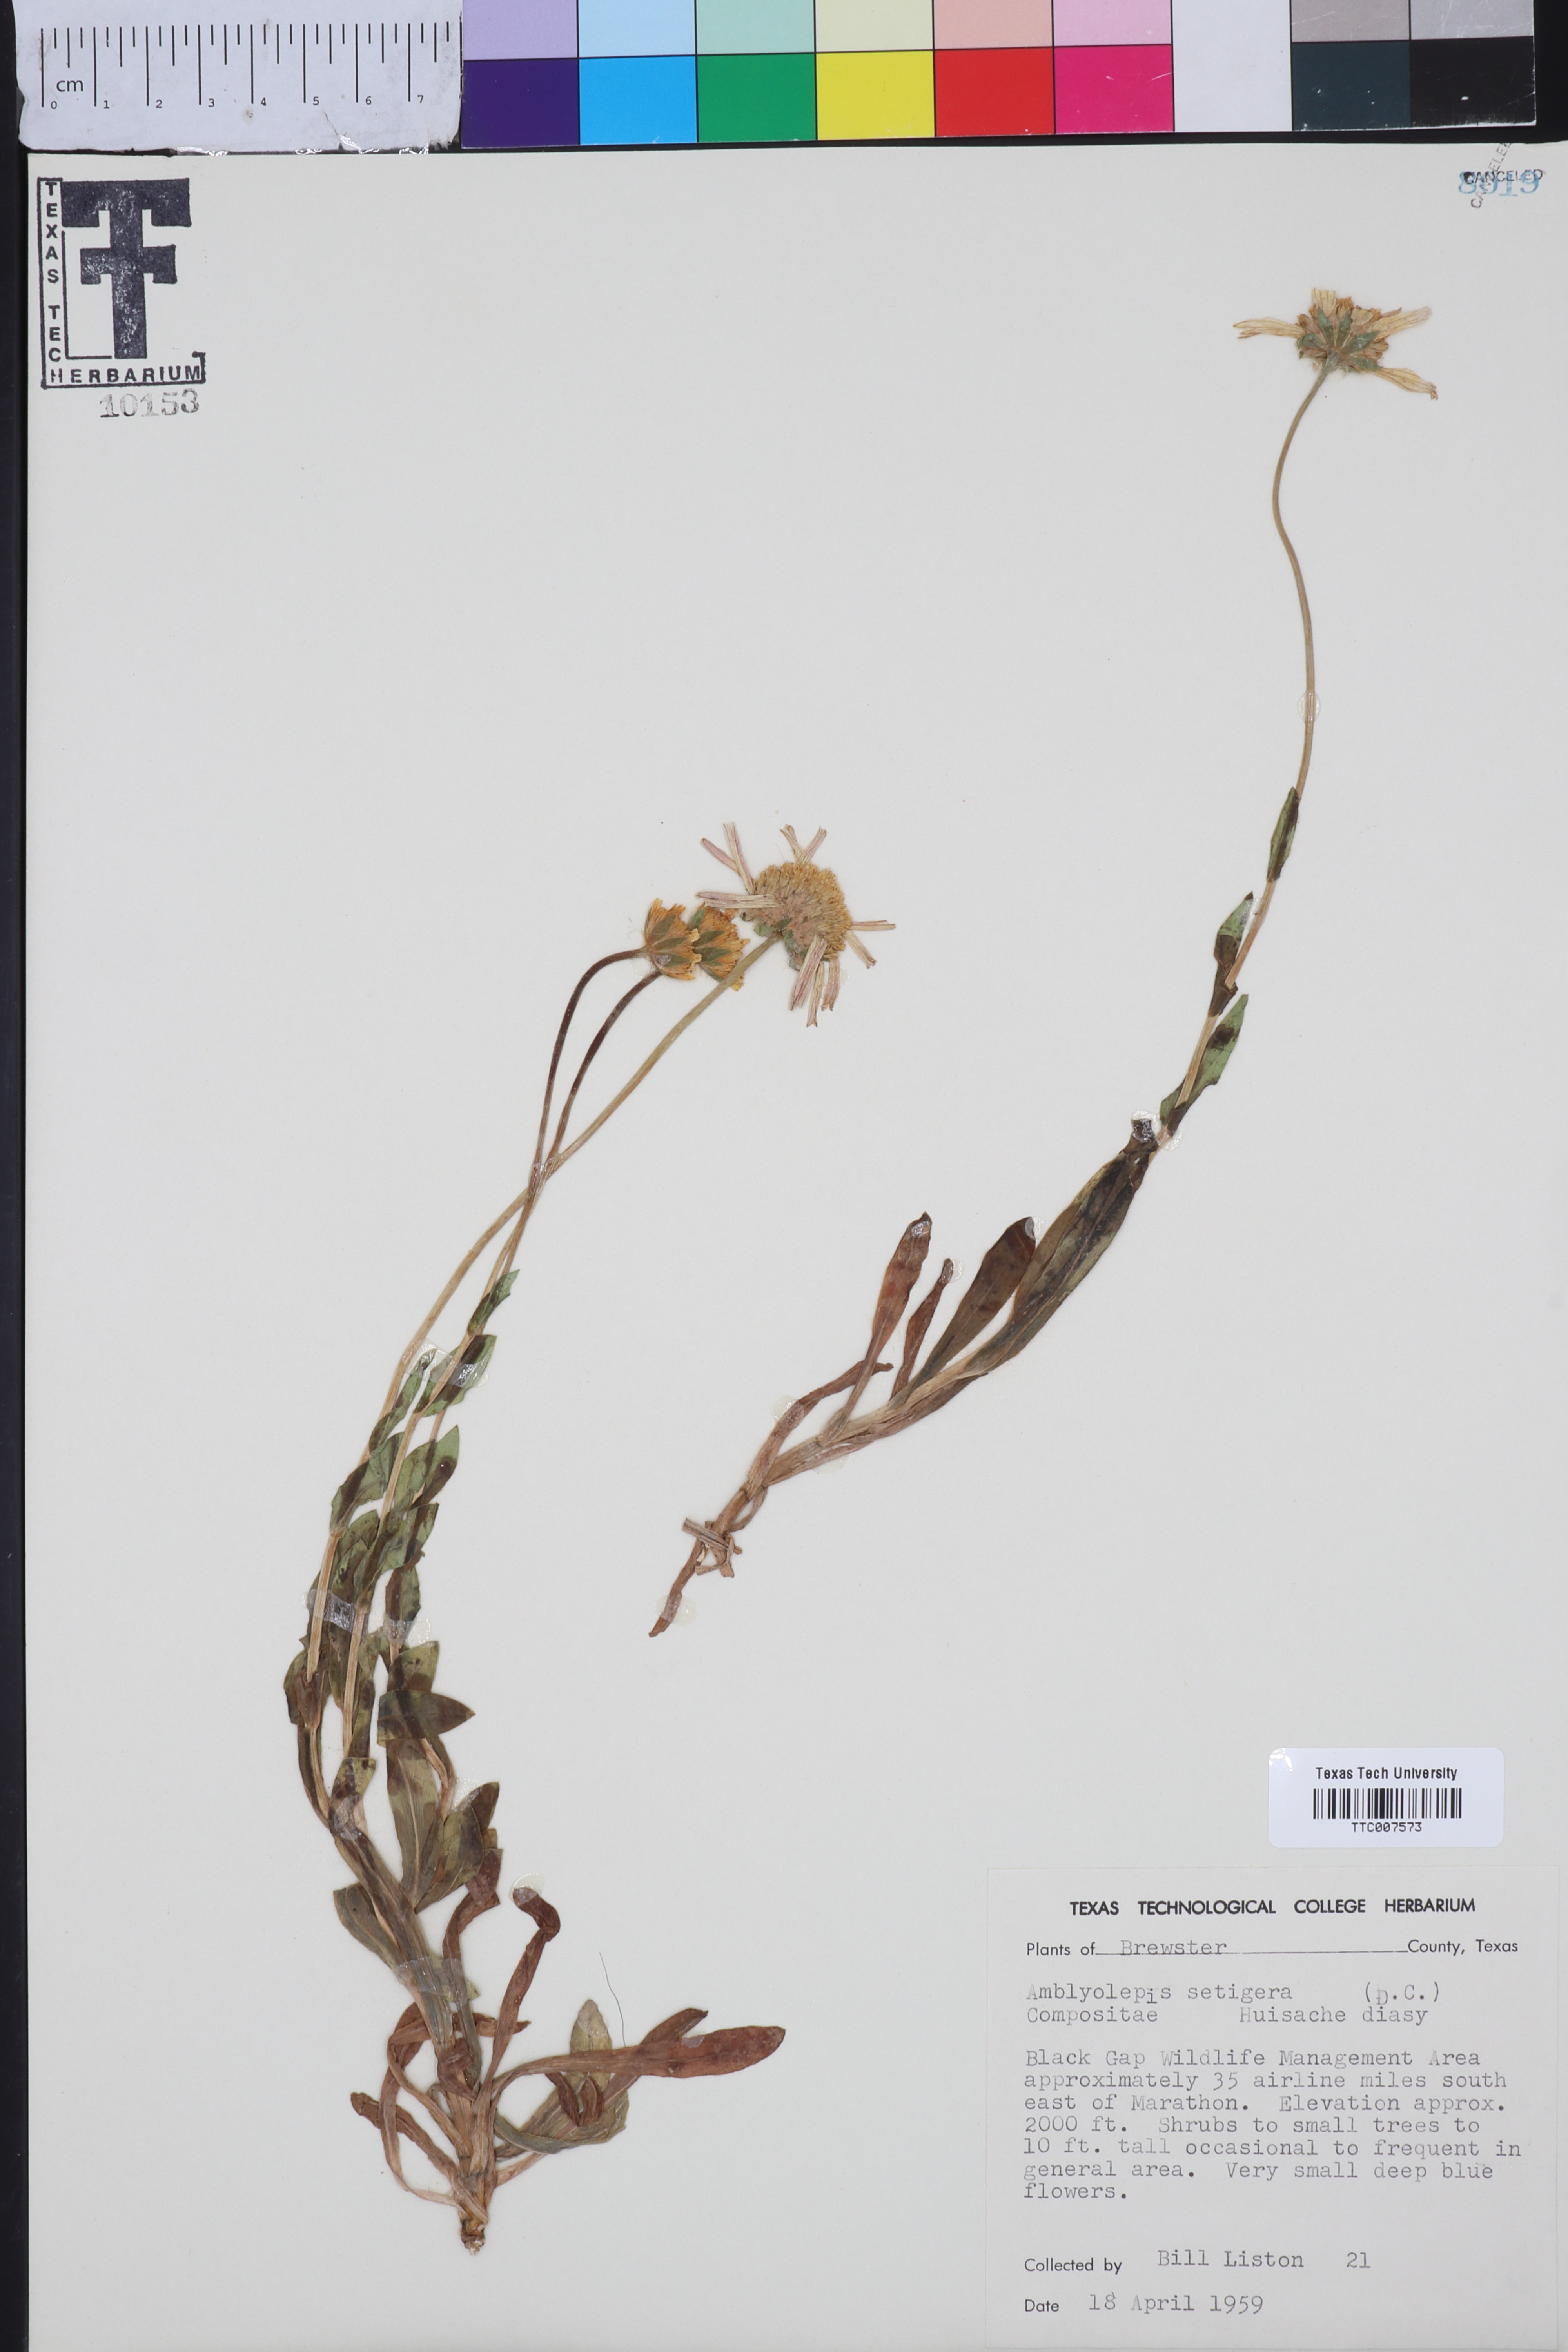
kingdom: Plantae
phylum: Tracheophyta
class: Magnoliopsida
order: Asterales
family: Asteraceae
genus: Amblyolepis
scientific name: Amblyolepis setigera
